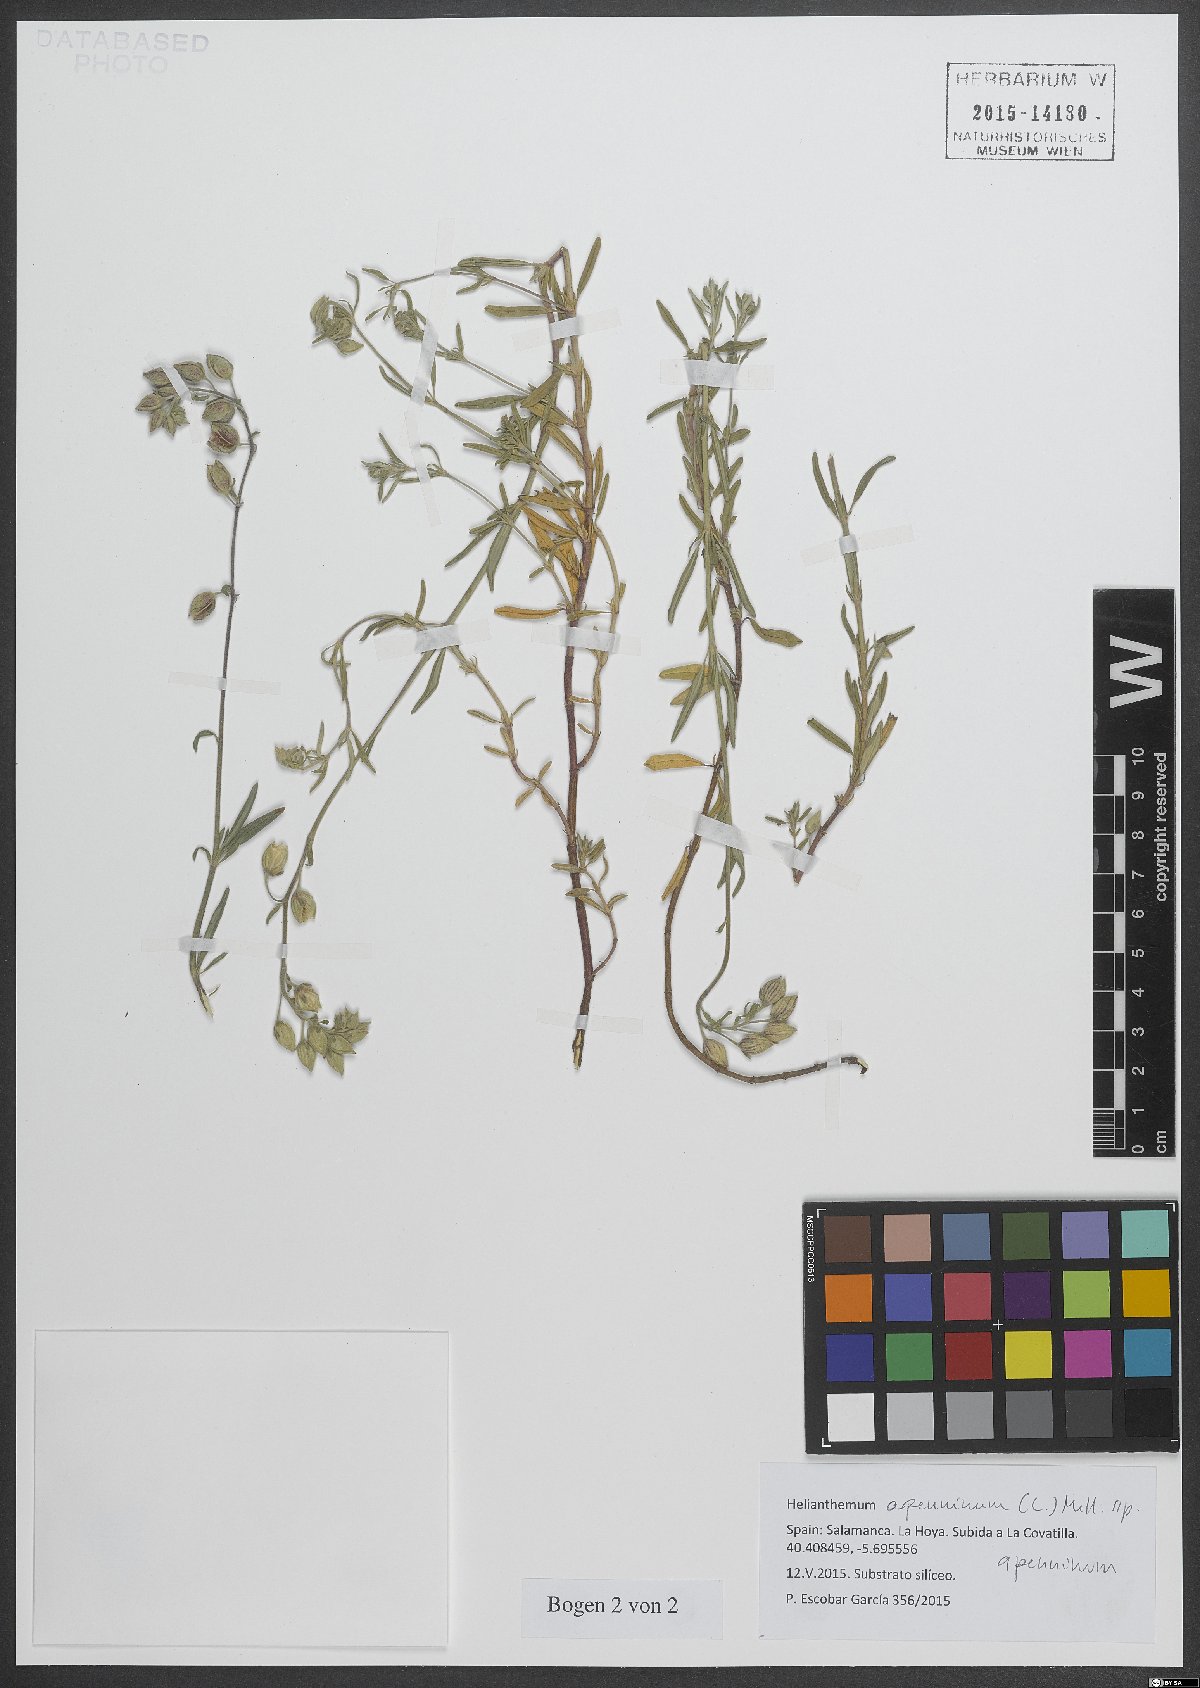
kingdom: Plantae
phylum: Tracheophyta
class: Magnoliopsida
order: Malvales
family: Cistaceae
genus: Helianthemum
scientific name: Helianthemum apenninum
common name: White rock-rose
